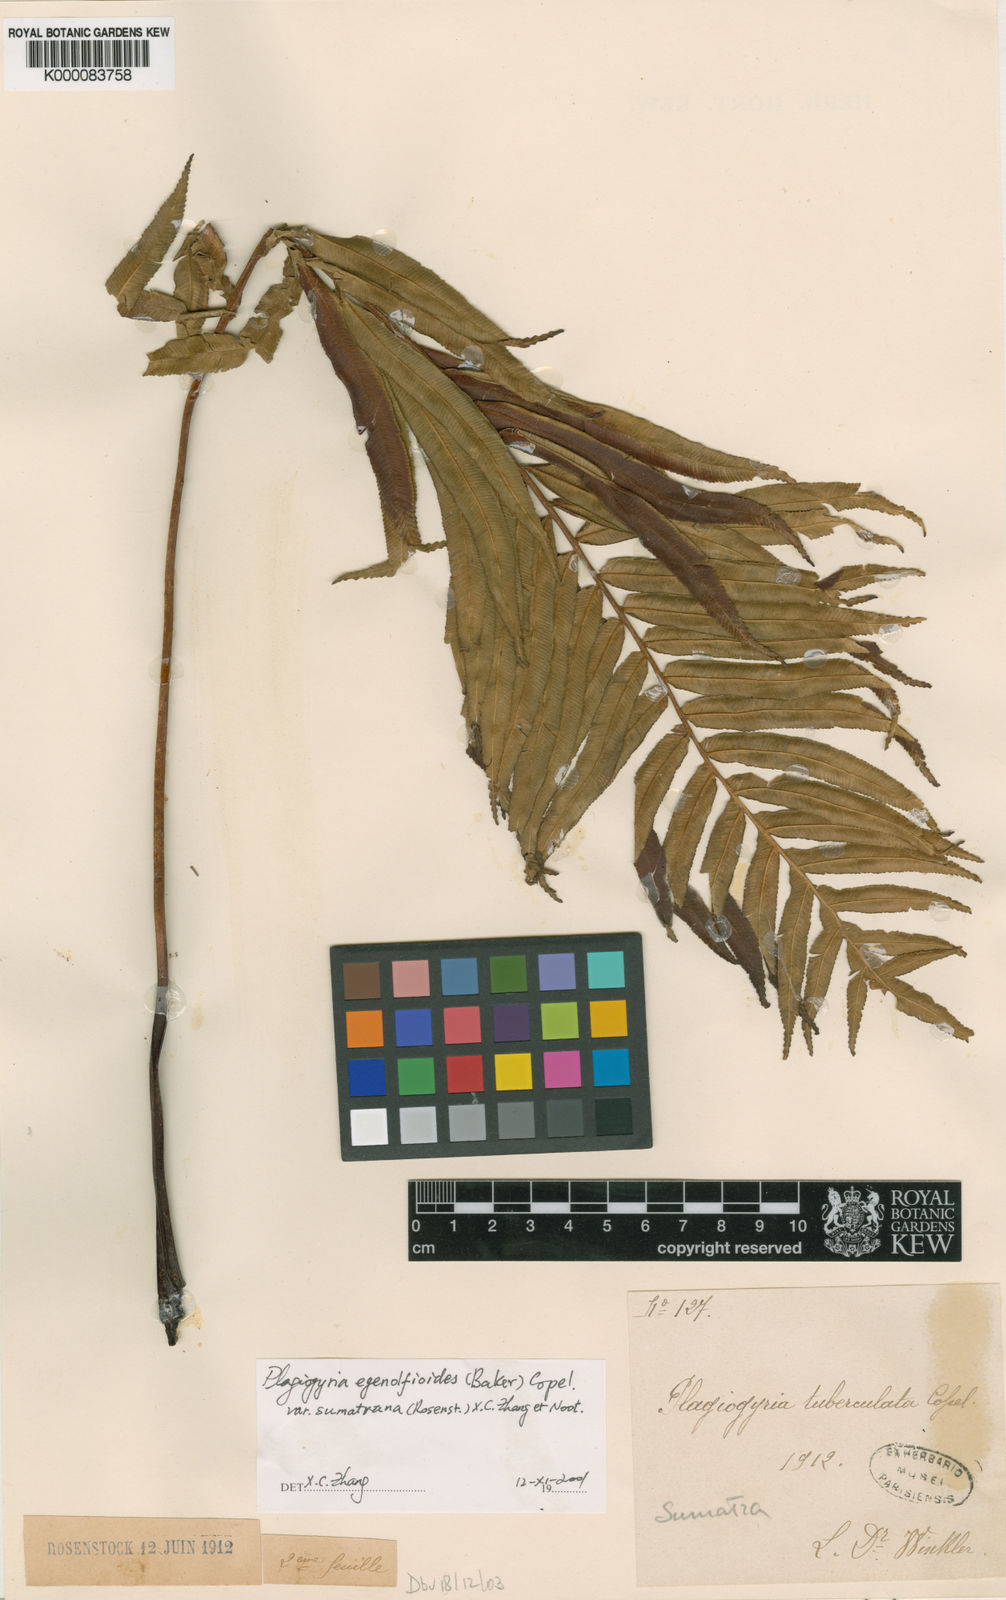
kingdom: Plantae
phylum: Tracheophyta
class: Polypodiopsida
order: Cyatheales
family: Plagiogyriaceae
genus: Plagiogyria
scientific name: Plagiogyria egenolfioides
